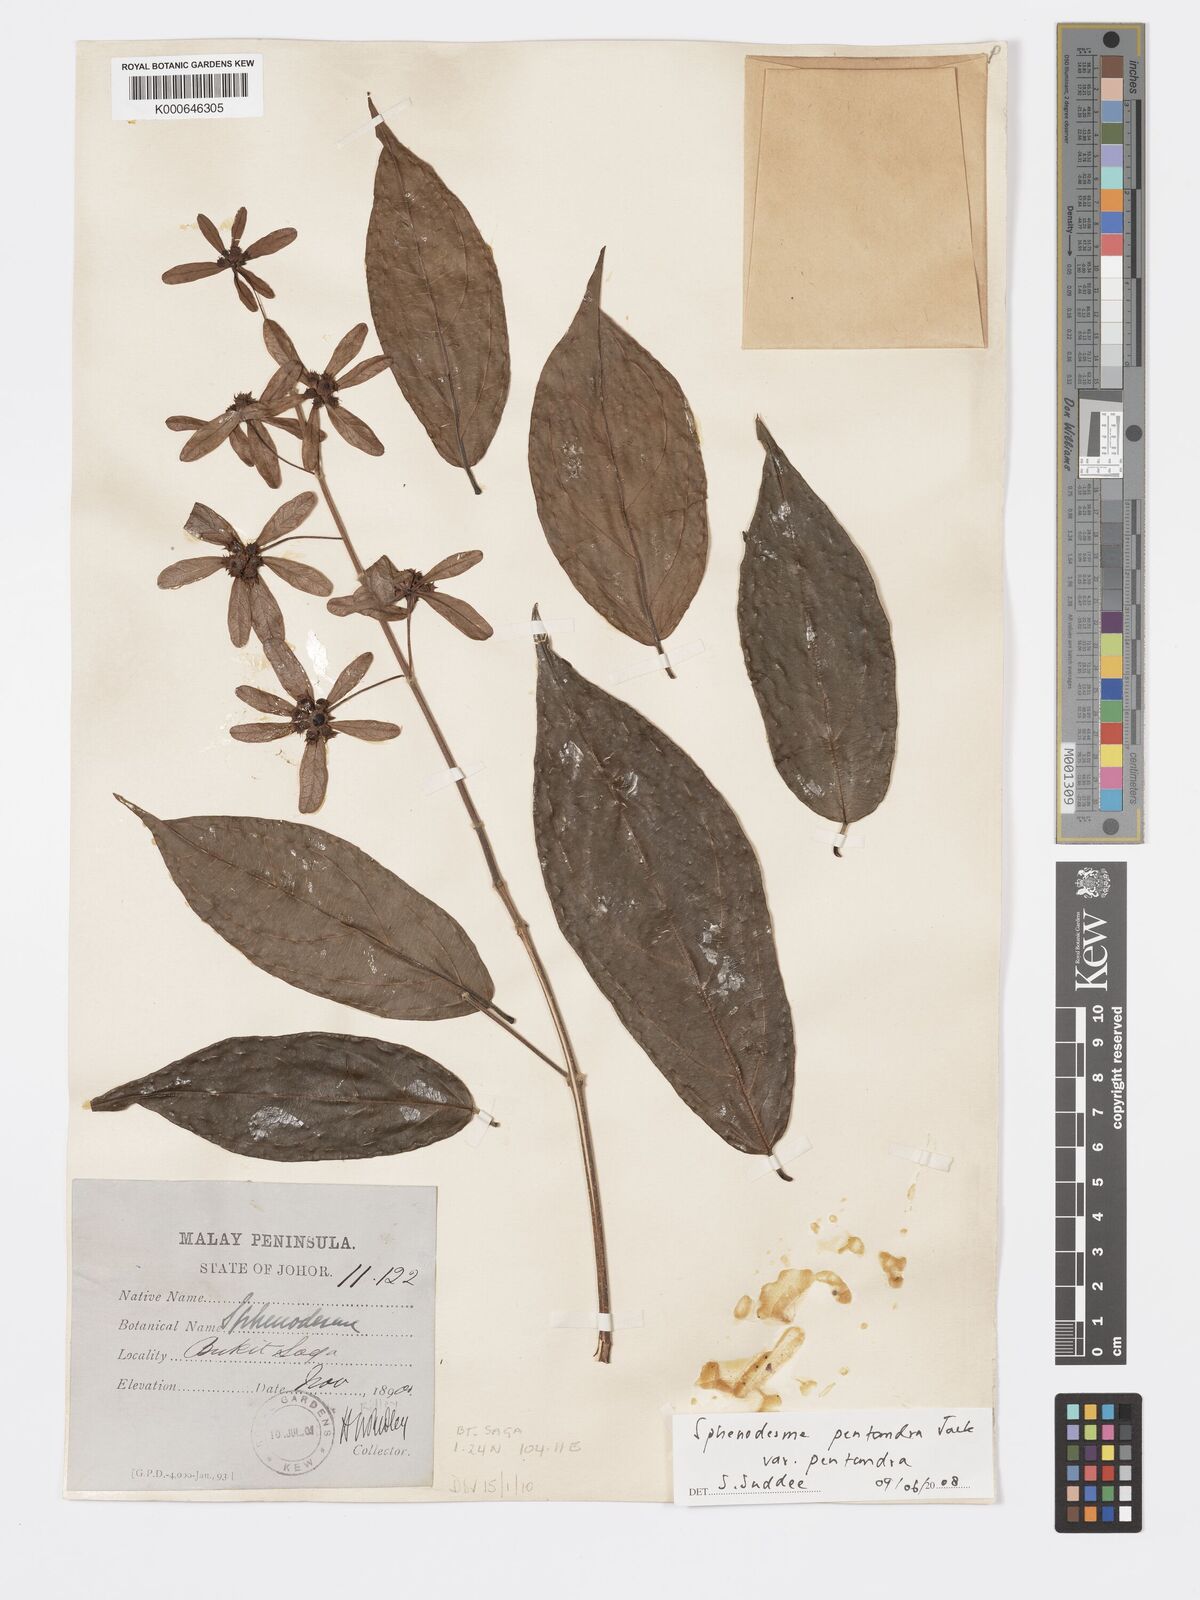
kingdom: Plantae
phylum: Tracheophyta
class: Magnoliopsida
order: Lamiales
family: Lamiaceae
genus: Sphenodesme
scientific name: Sphenodesme pentandra
